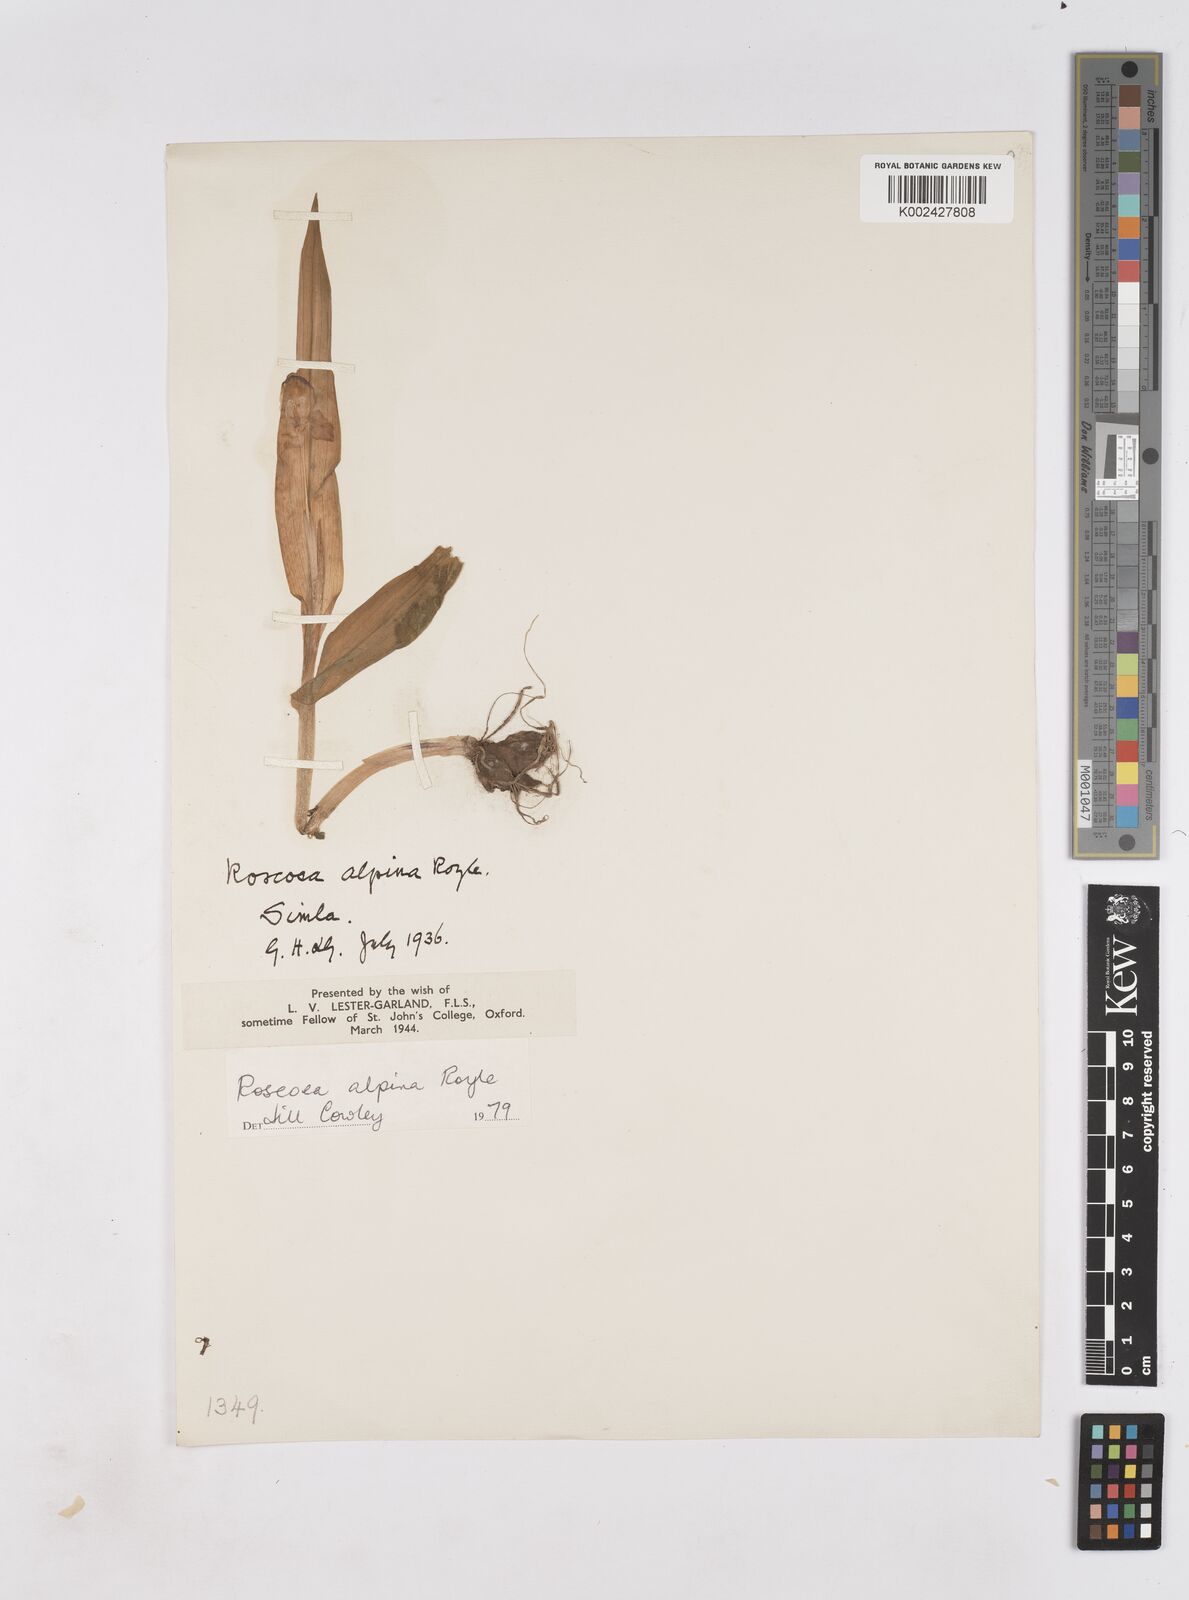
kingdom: Plantae
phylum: Tracheophyta
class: Liliopsida
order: Zingiberales
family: Zingiberaceae
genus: Roscoea
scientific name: Roscoea alpina
